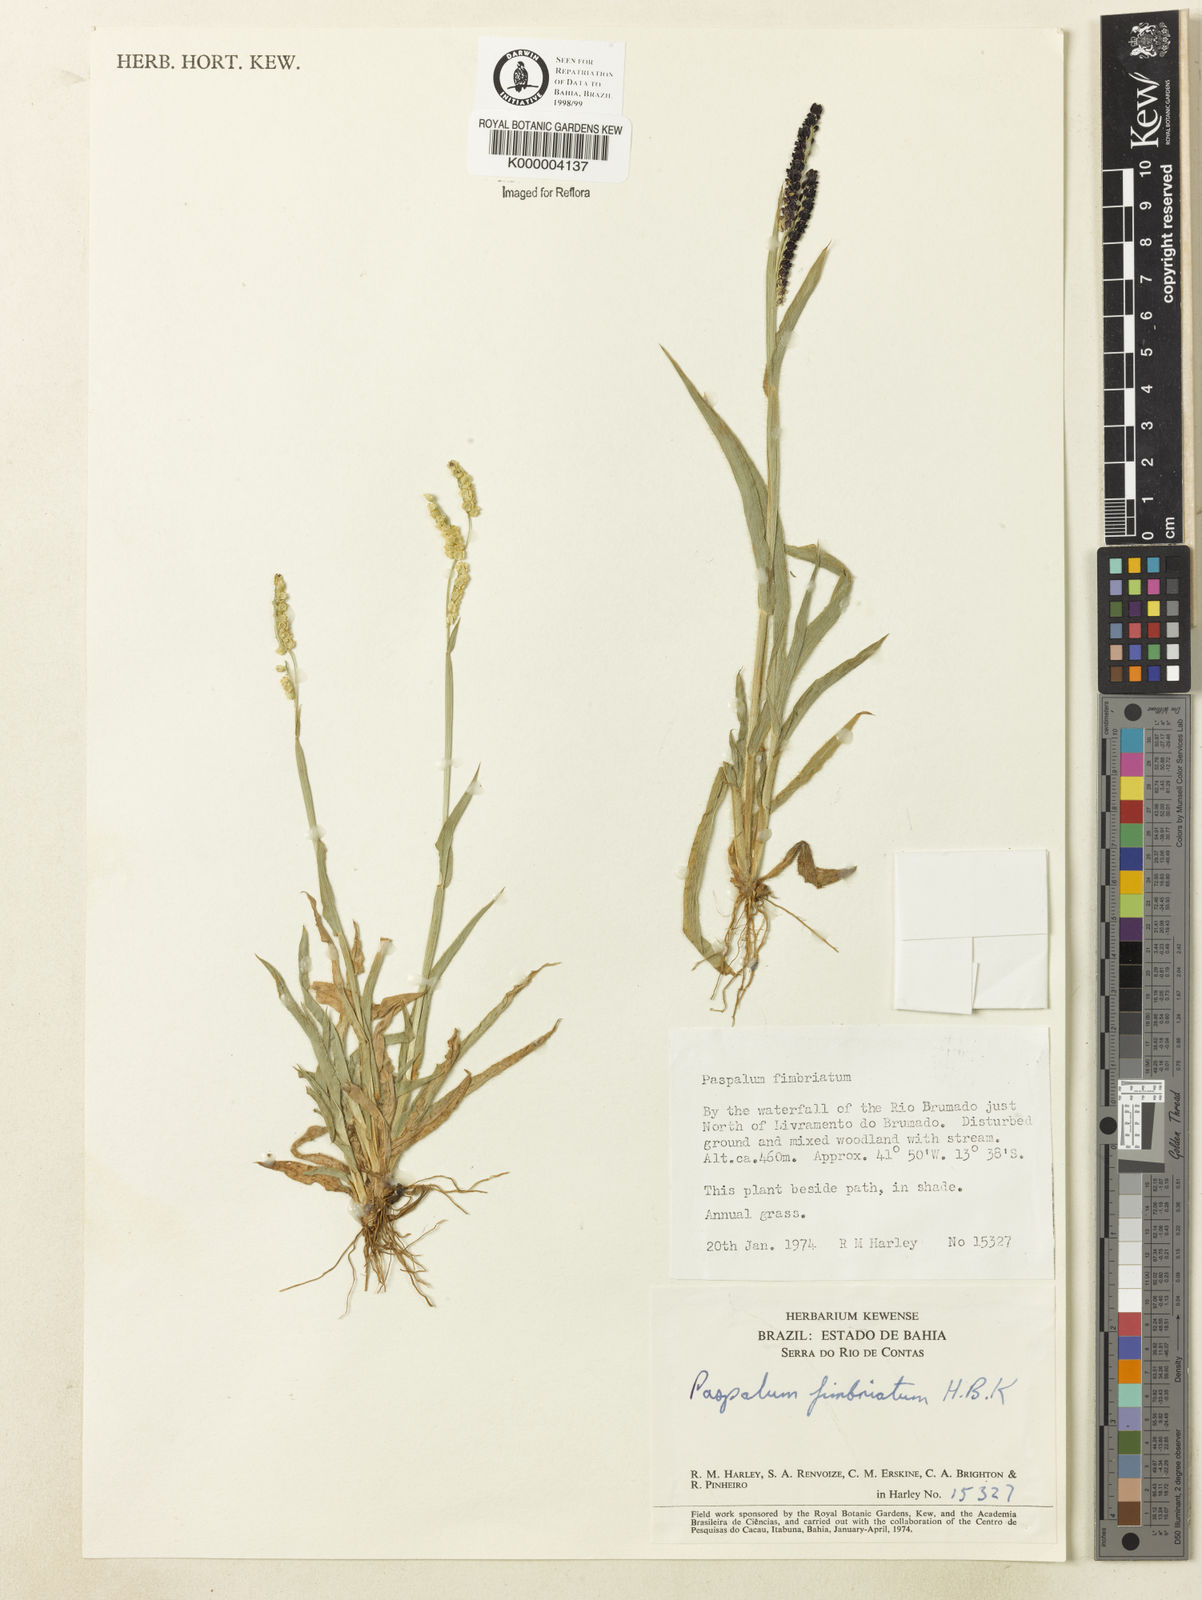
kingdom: Plantae
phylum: Tracheophyta
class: Liliopsida
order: Poales
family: Poaceae
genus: Paspalum
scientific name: Paspalum fimbriatum
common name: Panama crowngrass
